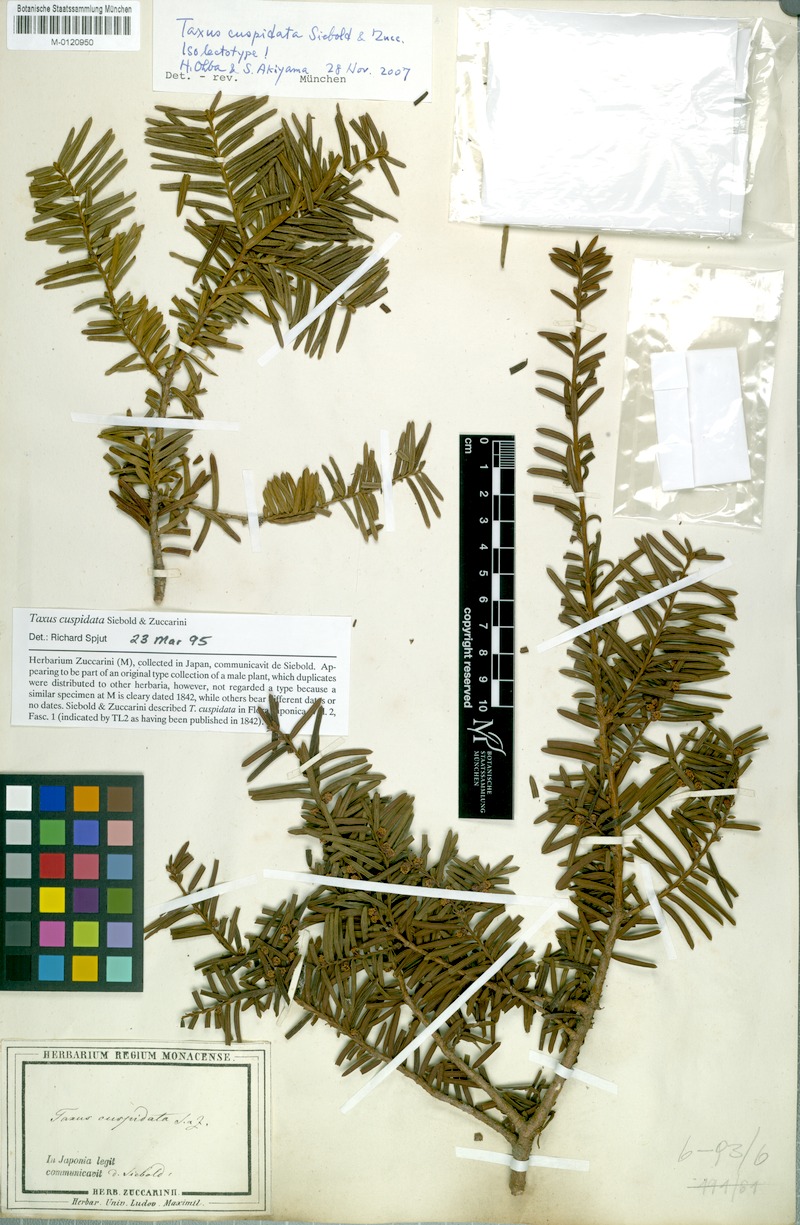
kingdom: Plantae
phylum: Tracheophyta
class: Pinopsida
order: Pinales
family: Taxaceae
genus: Taxus
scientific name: Taxus cuspidata
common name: Japanese yew
